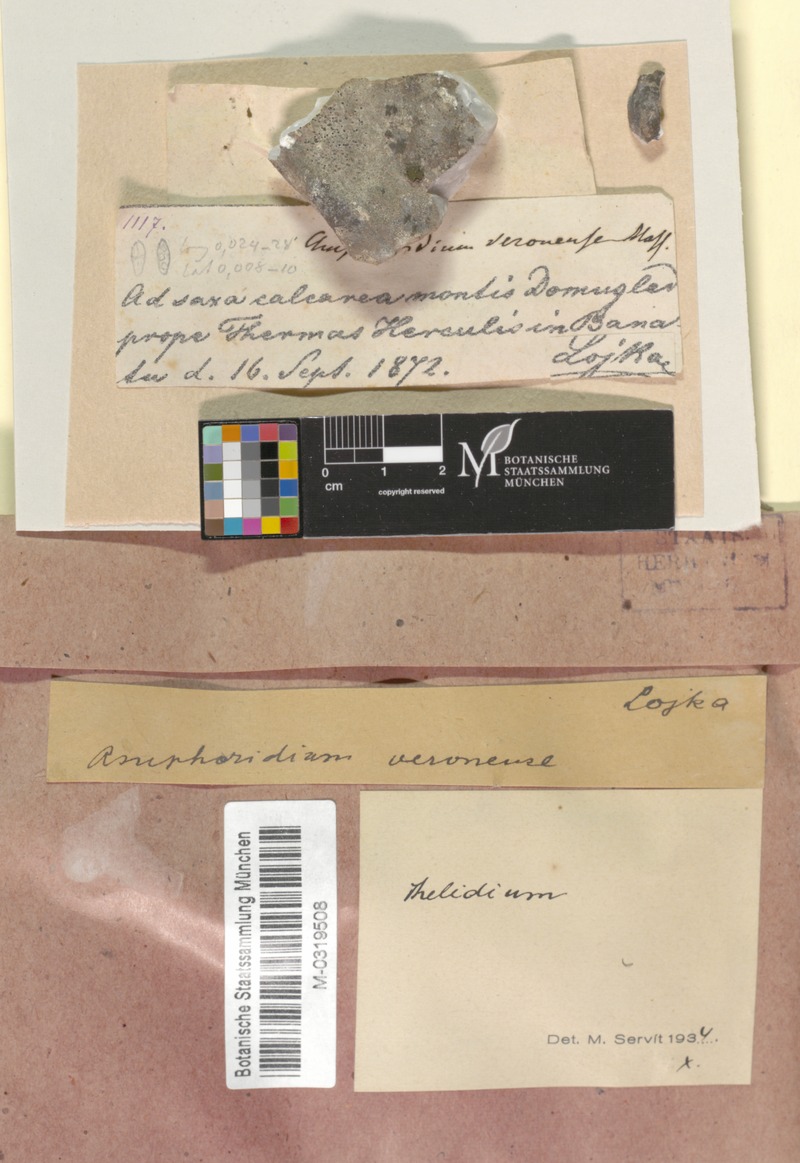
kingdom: Fungi
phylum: Ascomycota
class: Eurotiomycetes
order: Verrucariales
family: Verrucariaceae
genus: Verrucaria
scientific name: Verrucaria veronensis
